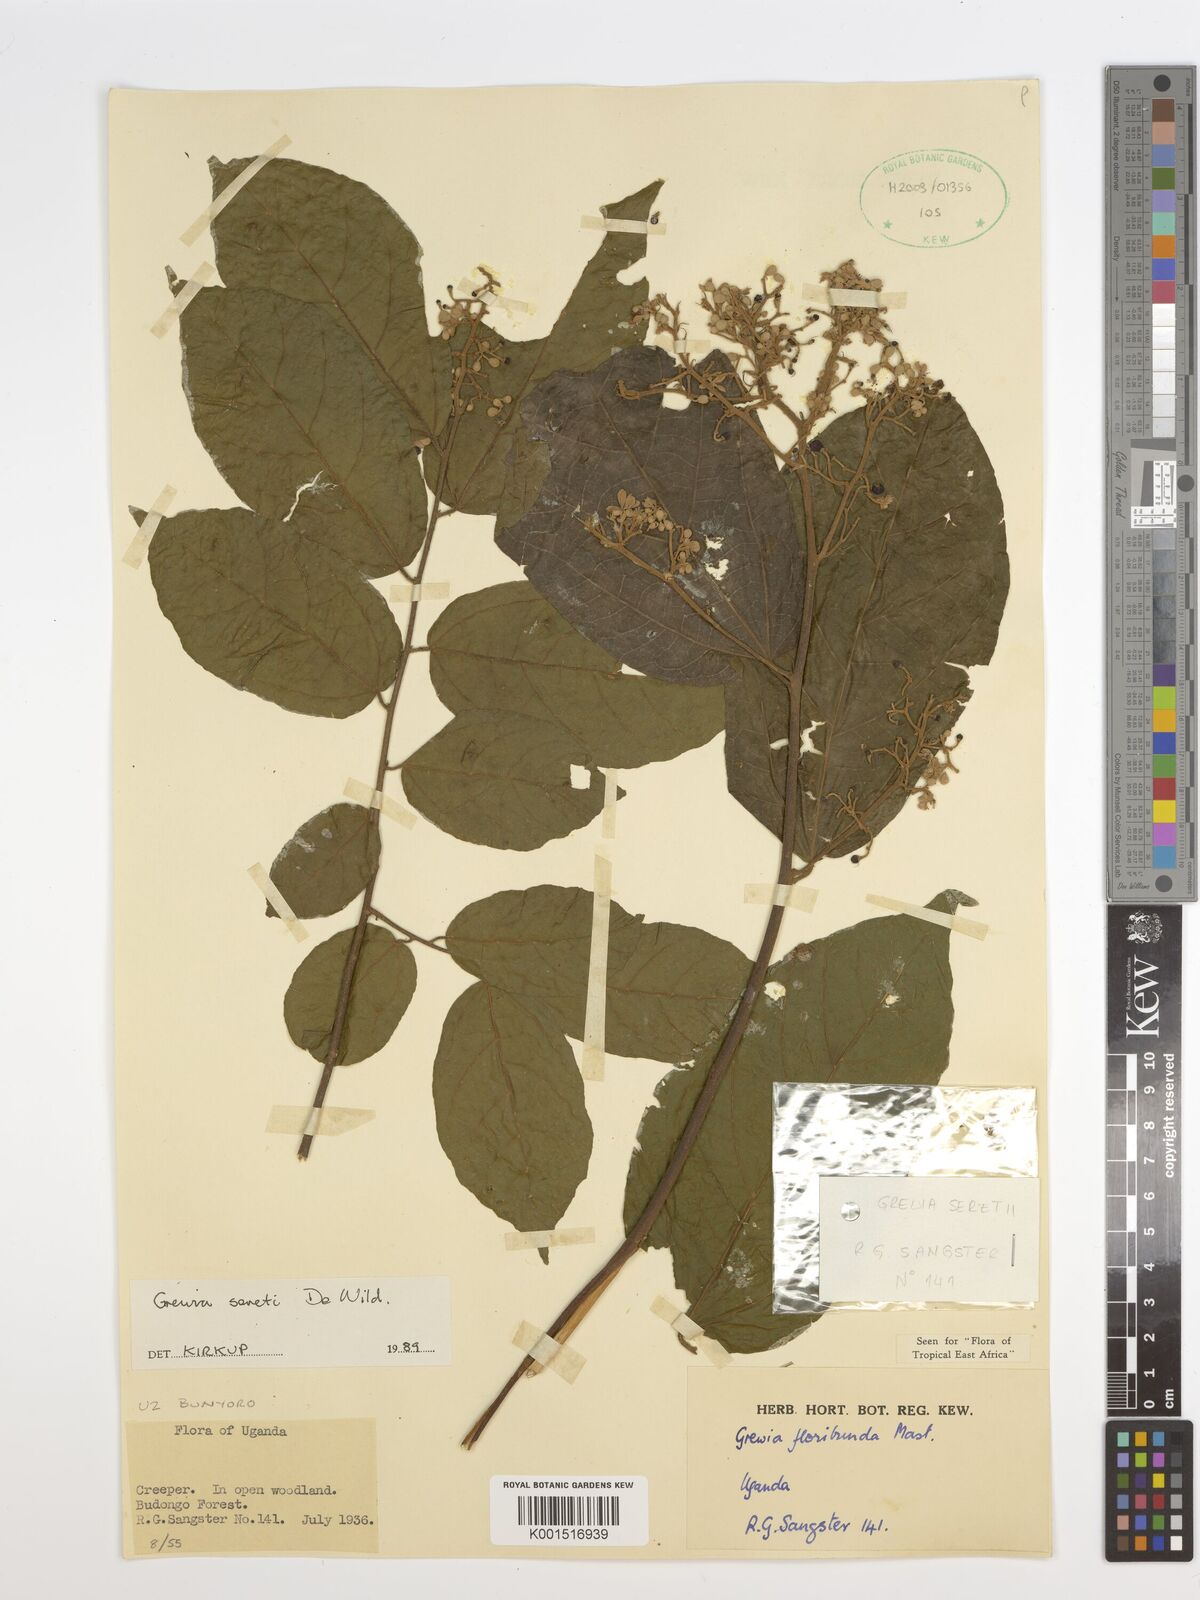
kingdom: Plantae
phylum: Tracheophyta
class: Magnoliopsida
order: Malvales
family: Malvaceae
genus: Microcos
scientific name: Microcos seretii
